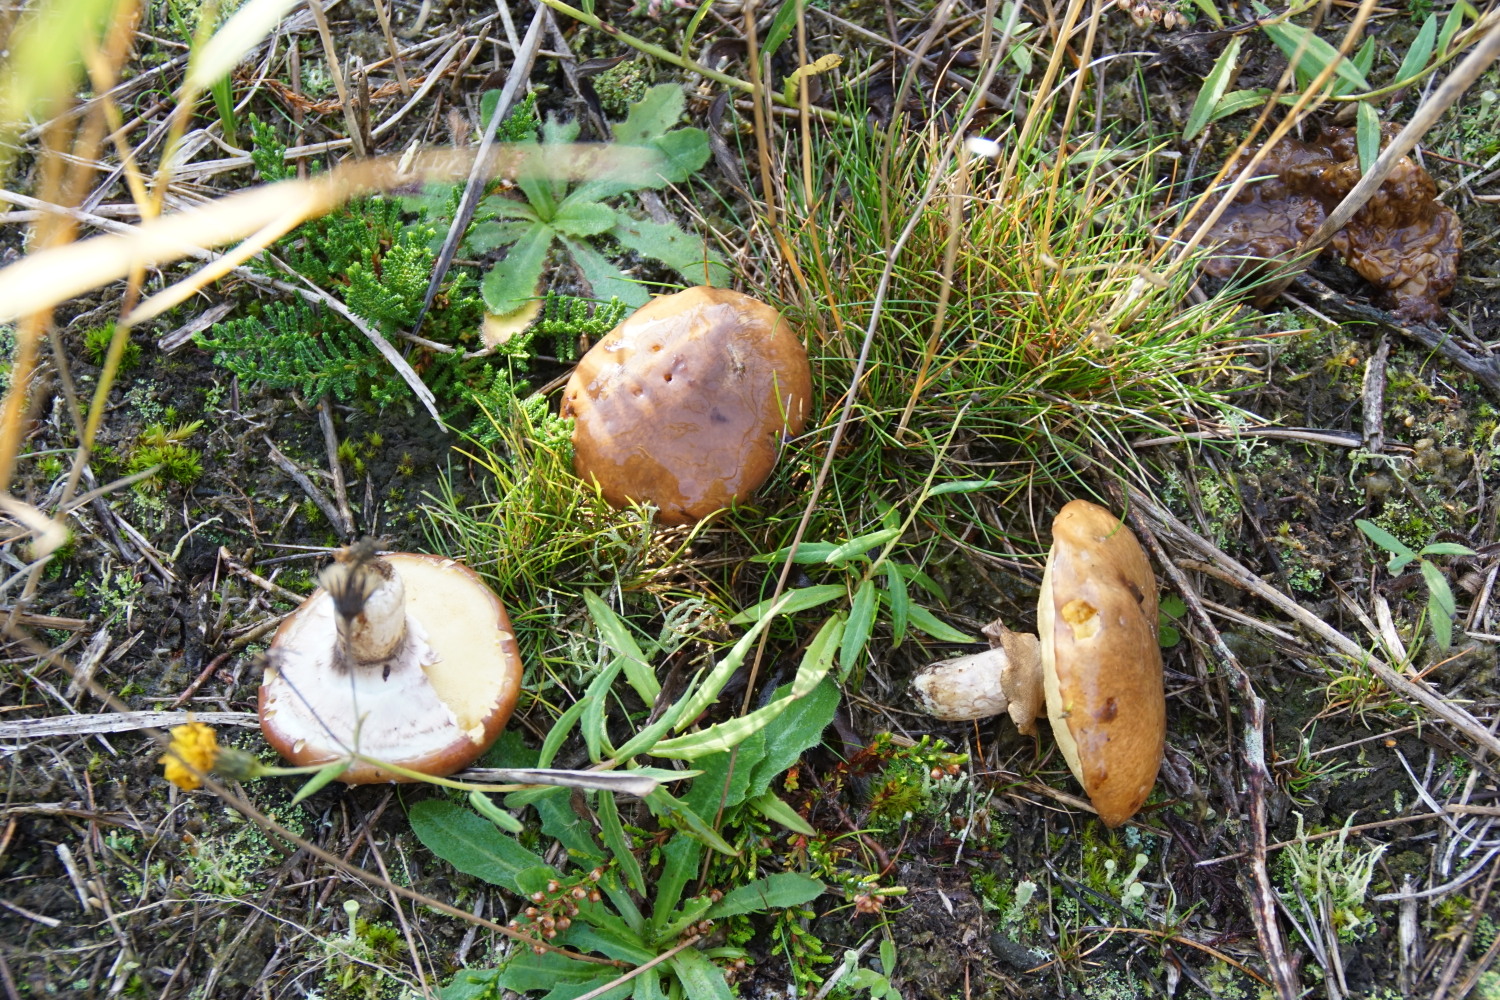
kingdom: Fungi
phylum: Basidiomycota
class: Agaricomycetes
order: Boletales
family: Suillaceae
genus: Suillus
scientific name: Suillus luteus
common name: brungul slimrørhat
